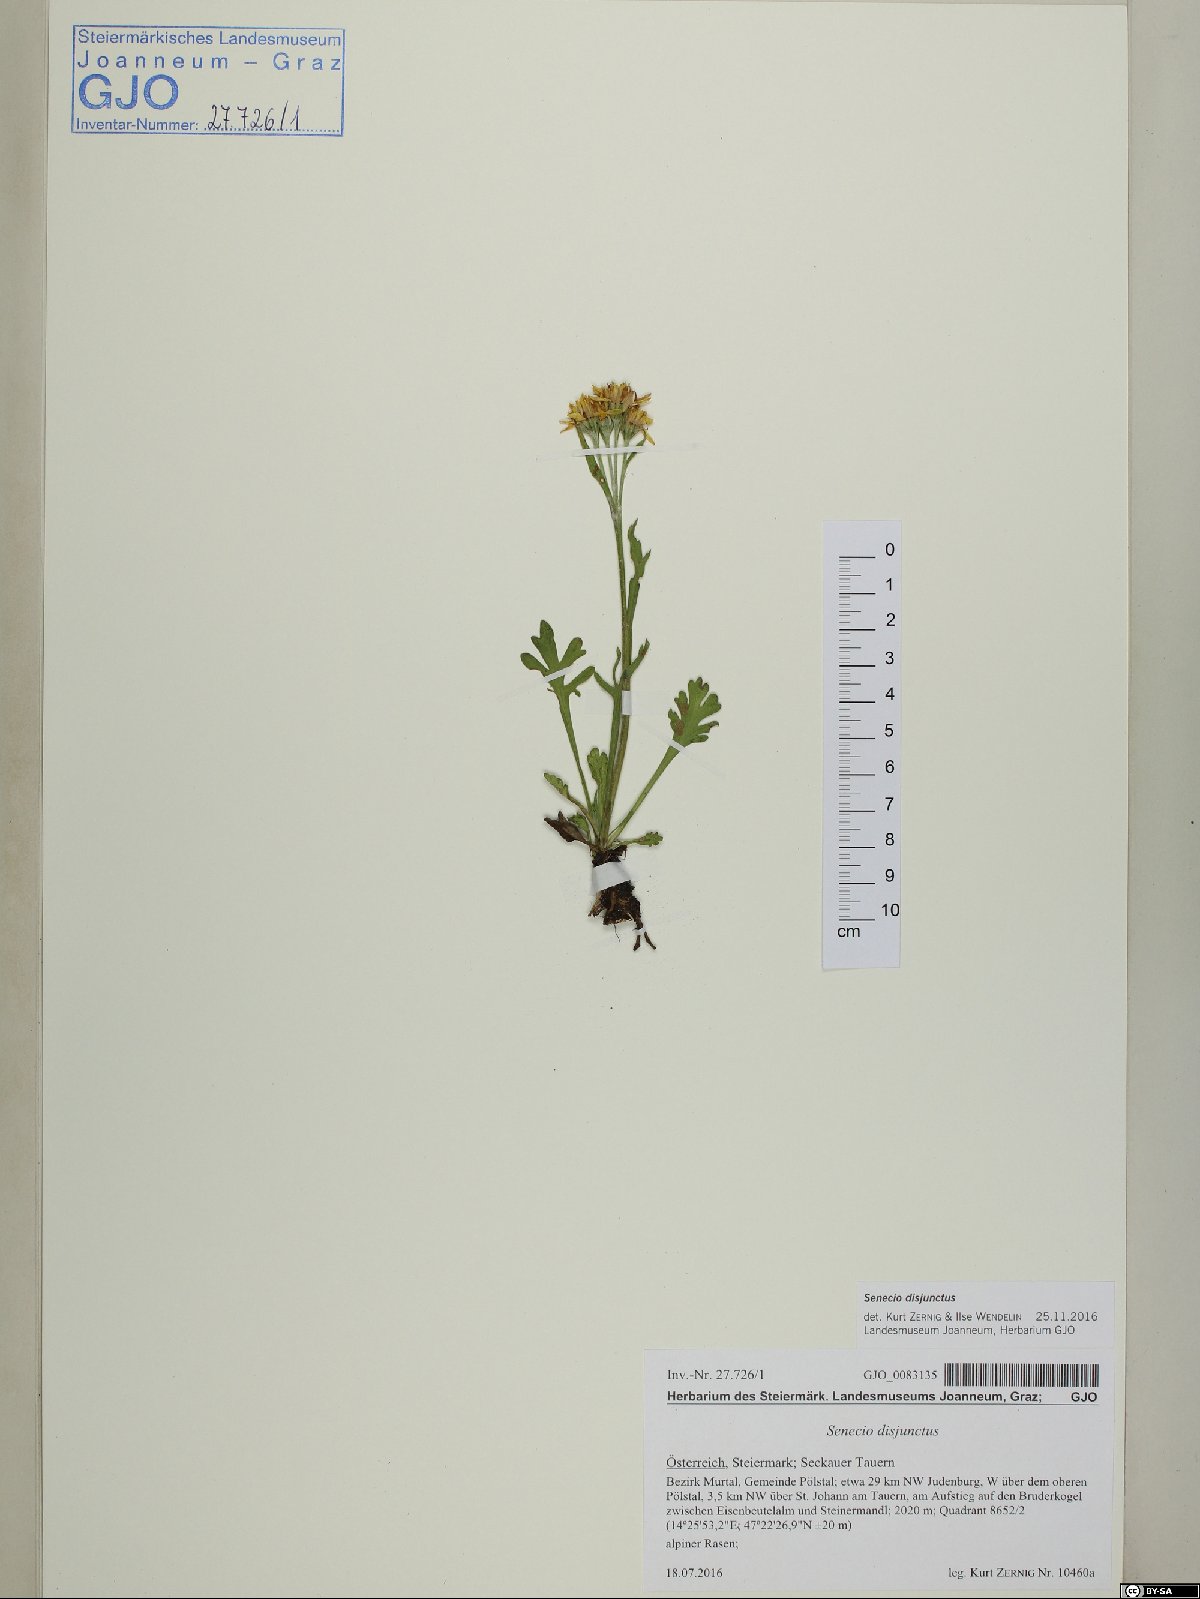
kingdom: Plantae
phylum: Tracheophyta
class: Magnoliopsida
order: Asterales
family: Asteraceae
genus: Jacobaea
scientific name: Jacobaea disjuncta
